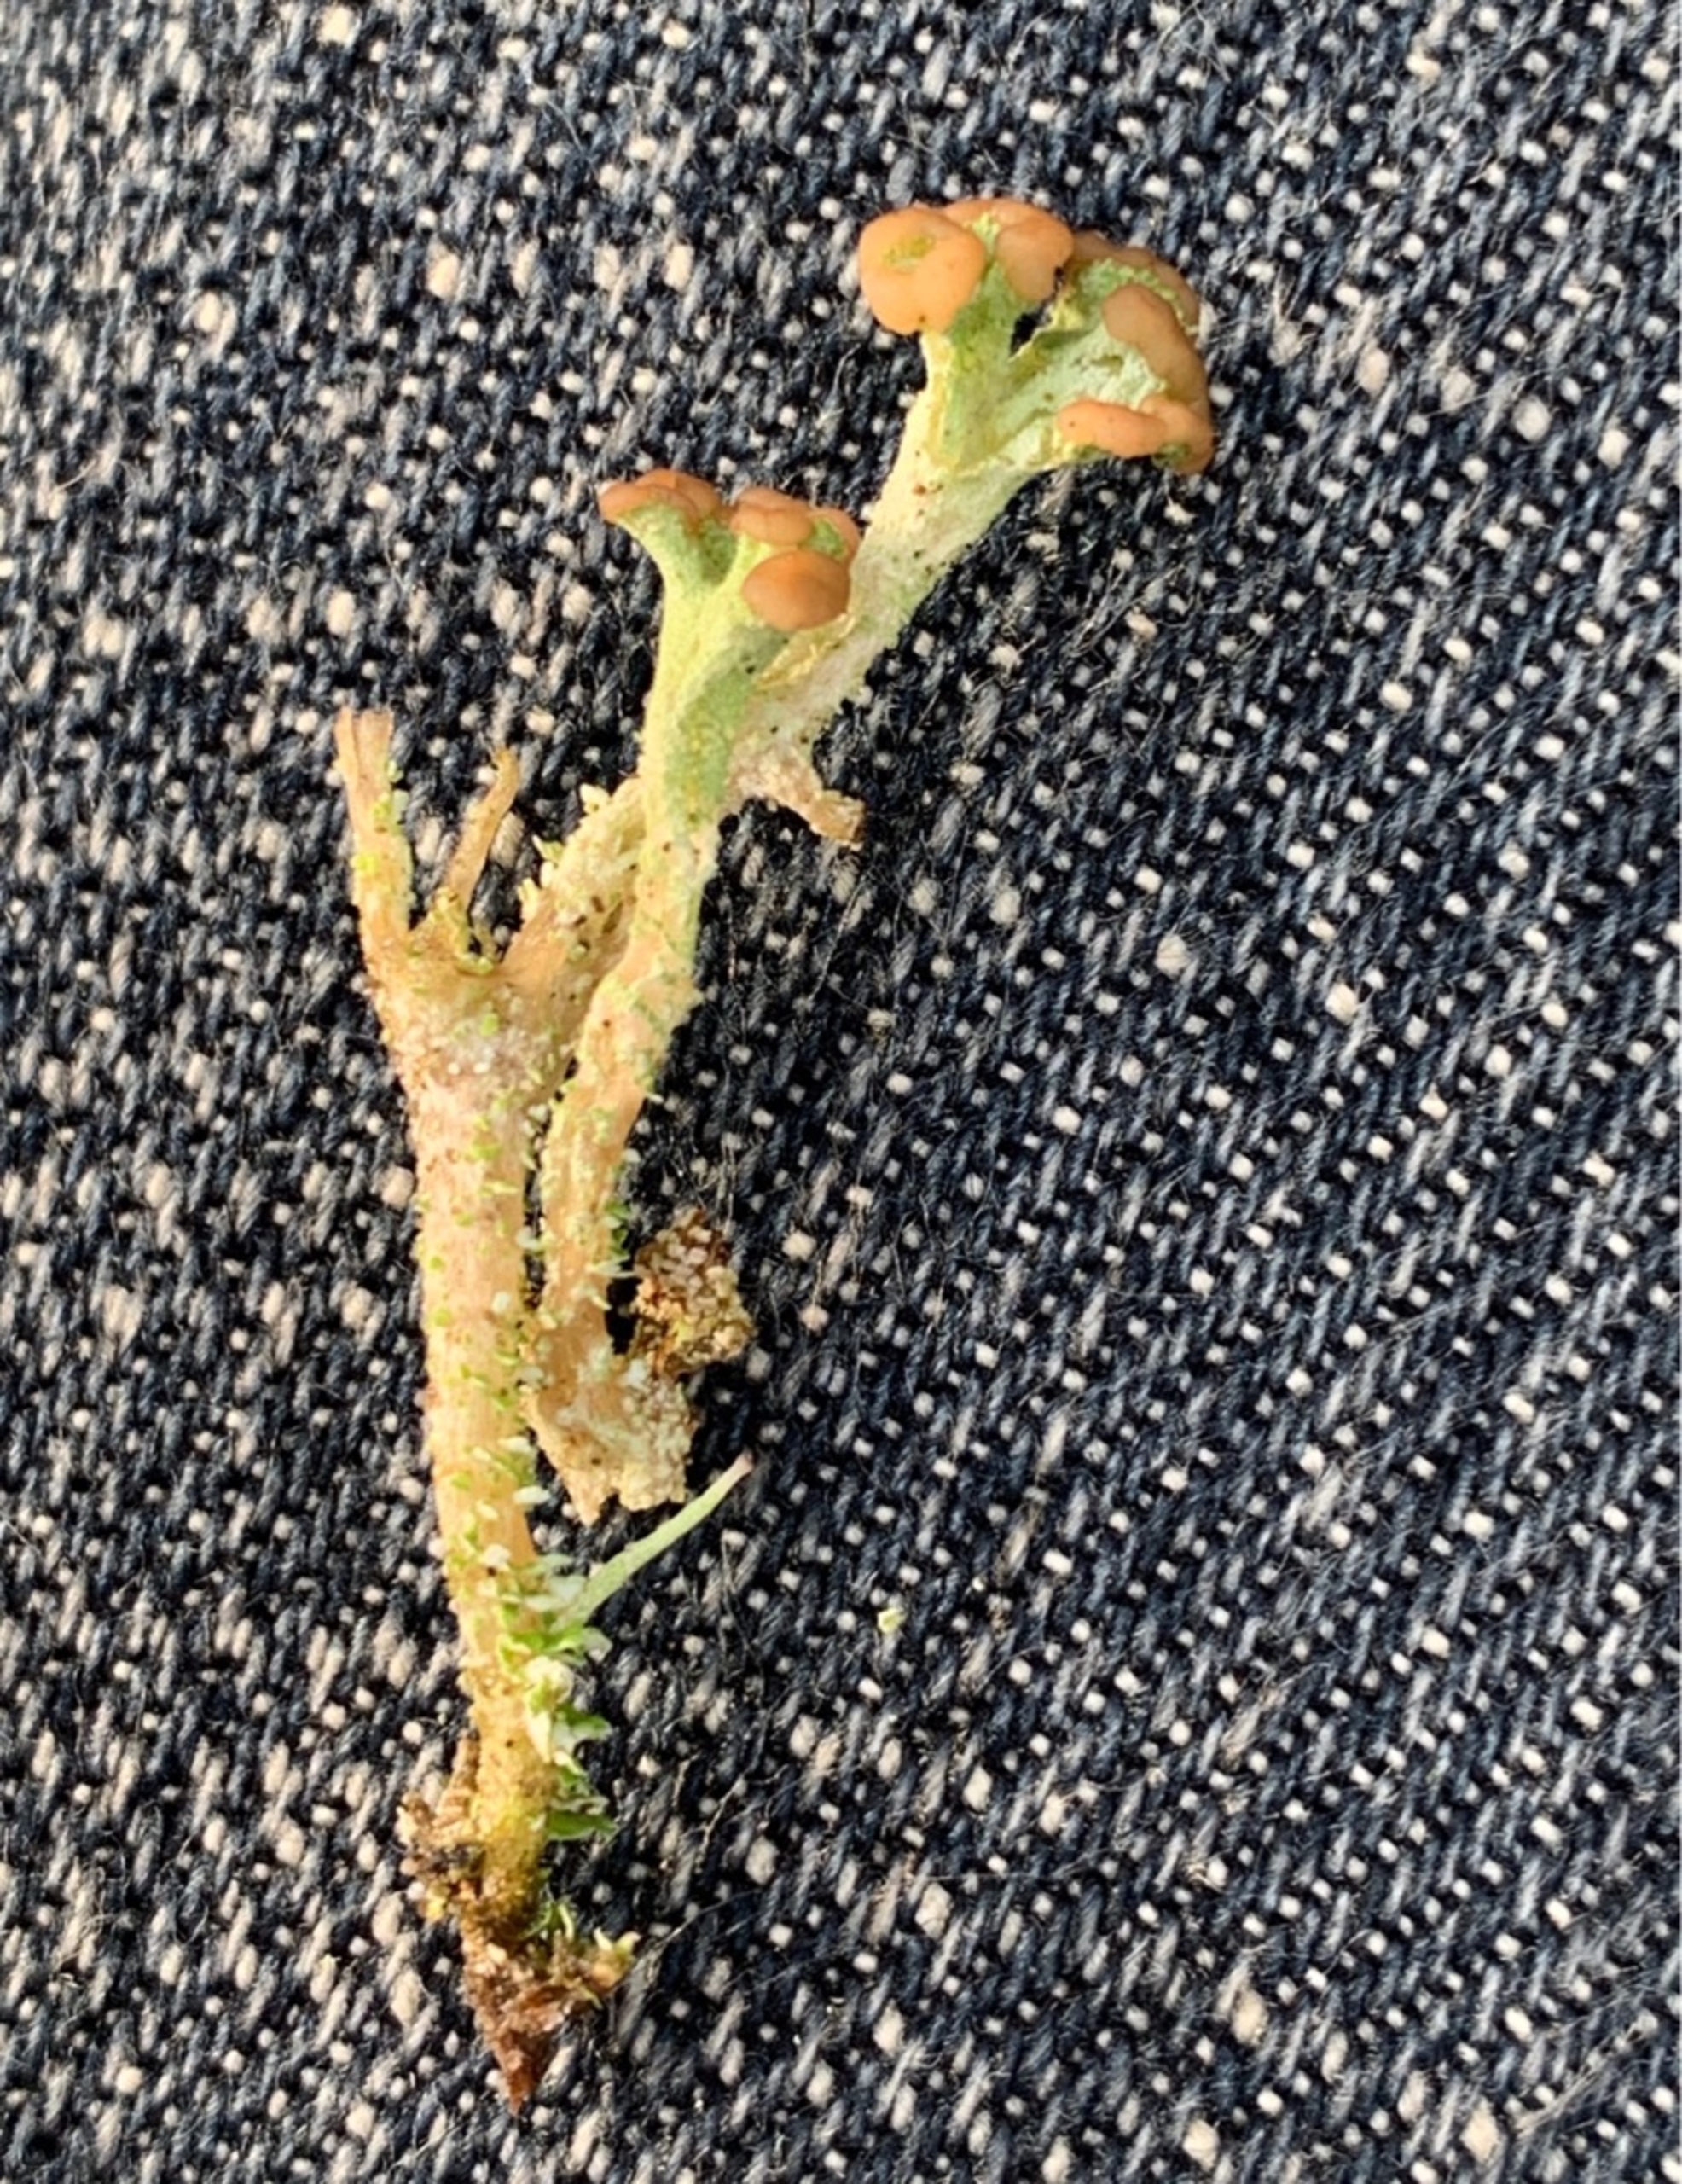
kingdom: Fungi
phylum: Ascomycota
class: Lecanoromycetes
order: Lecanorales
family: Cladoniaceae
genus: Cladonia
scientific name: Cladonia ramulosa
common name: Kliddet bægerlav
